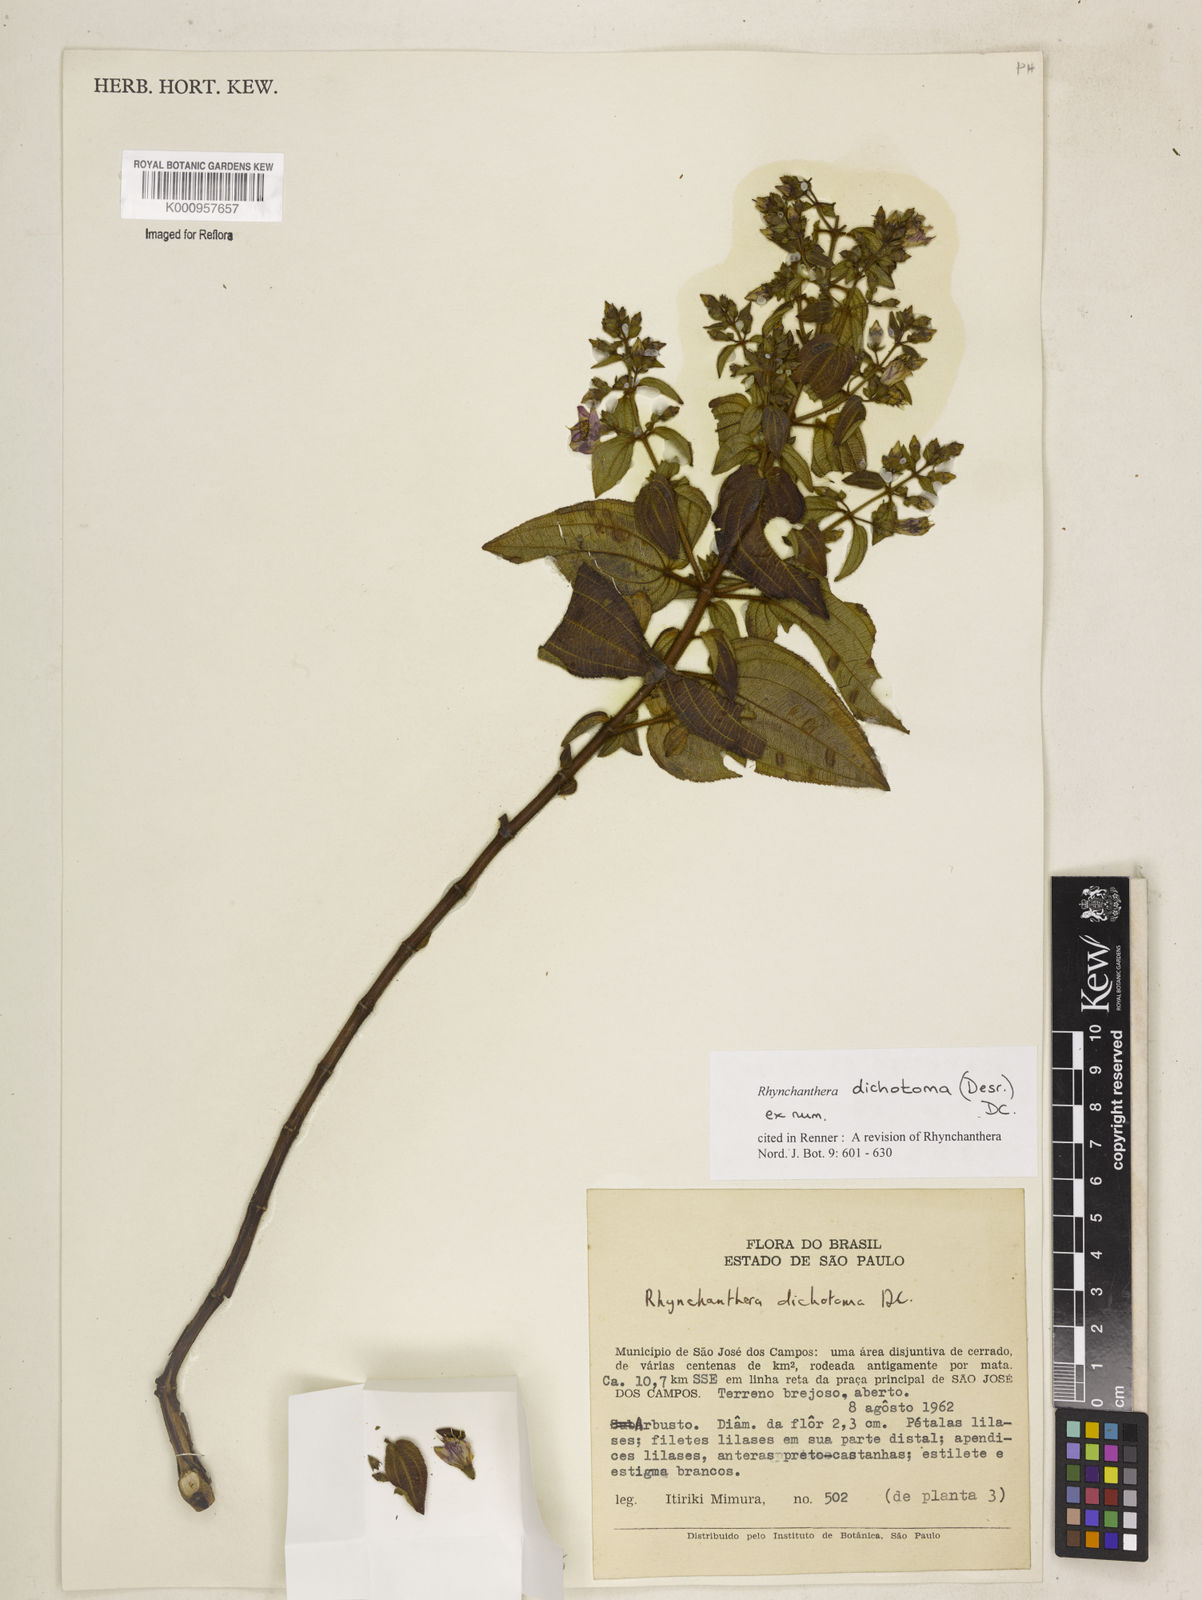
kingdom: Plantae
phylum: Tracheophyta
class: Magnoliopsida
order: Myrtales
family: Melastomataceae
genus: Rhynchanthera
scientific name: Rhynchanthera dichotoma
